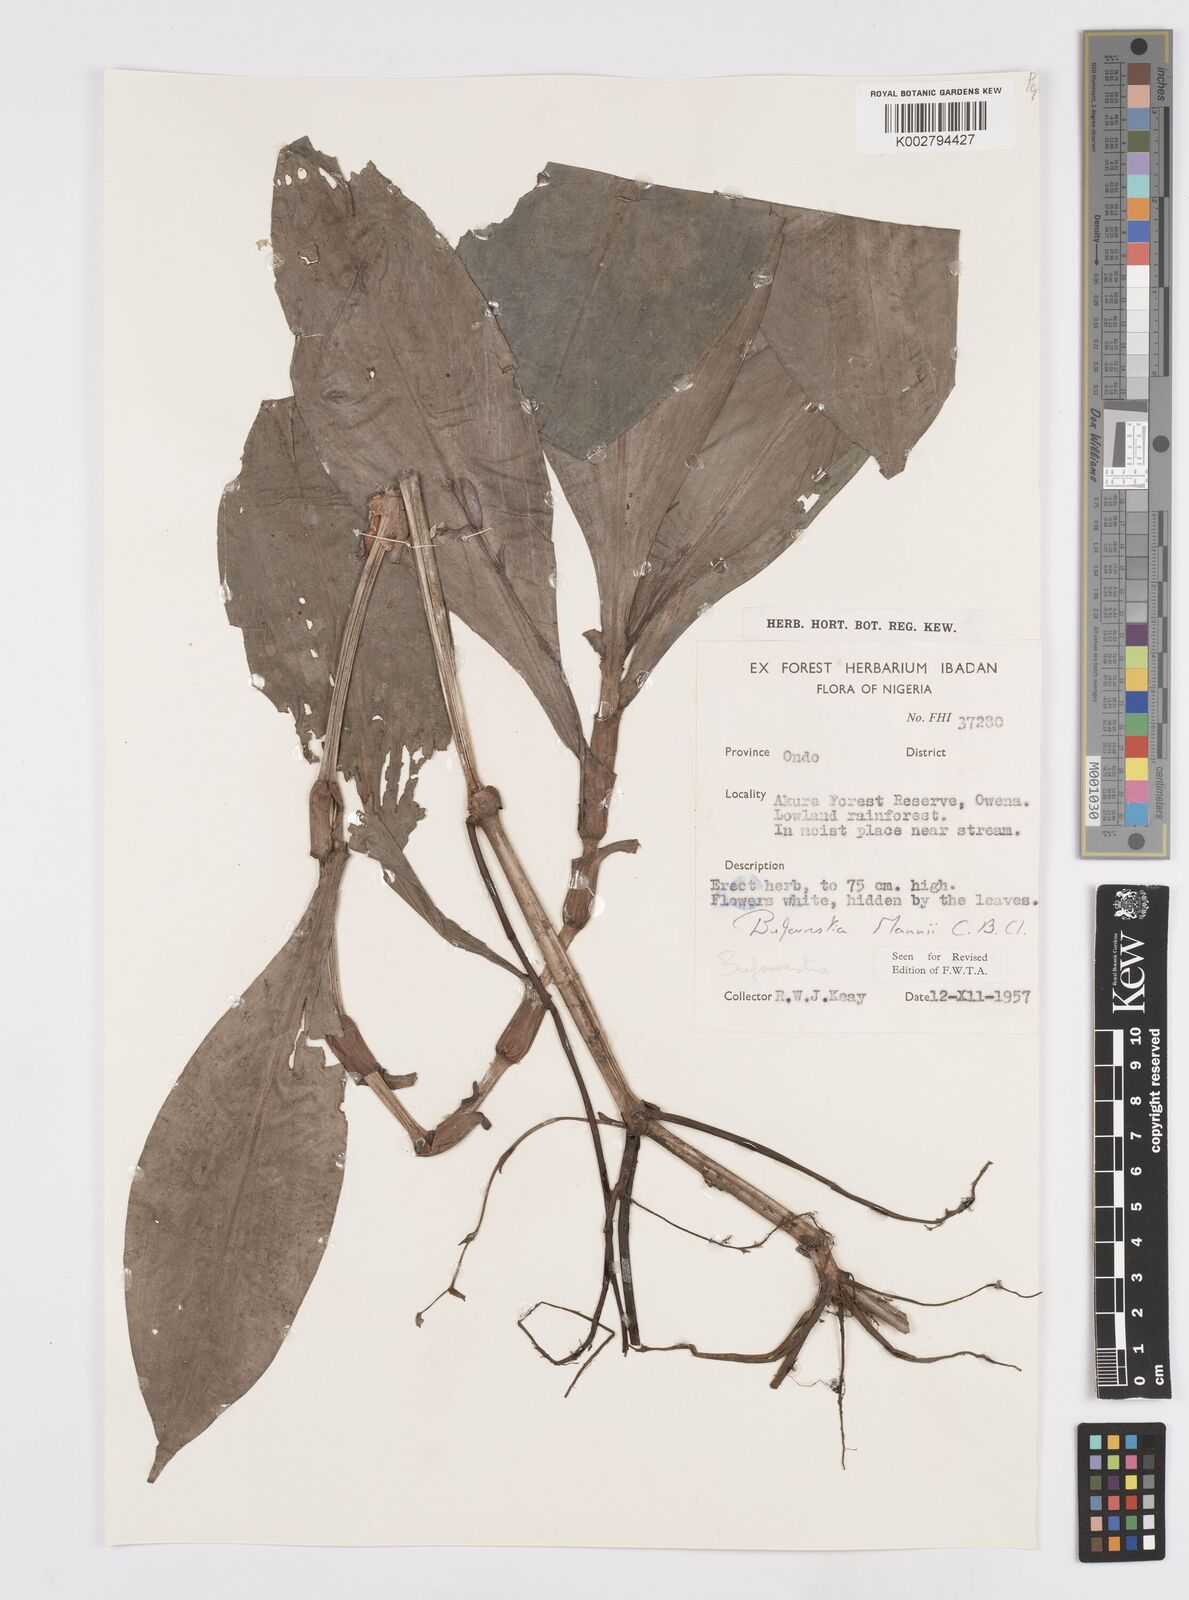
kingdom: Plantae
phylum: Tracheophyta
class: Liliopsida
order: Commelinales
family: Commelinaceae
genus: Buforrestia
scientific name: Buforrestia mannii
